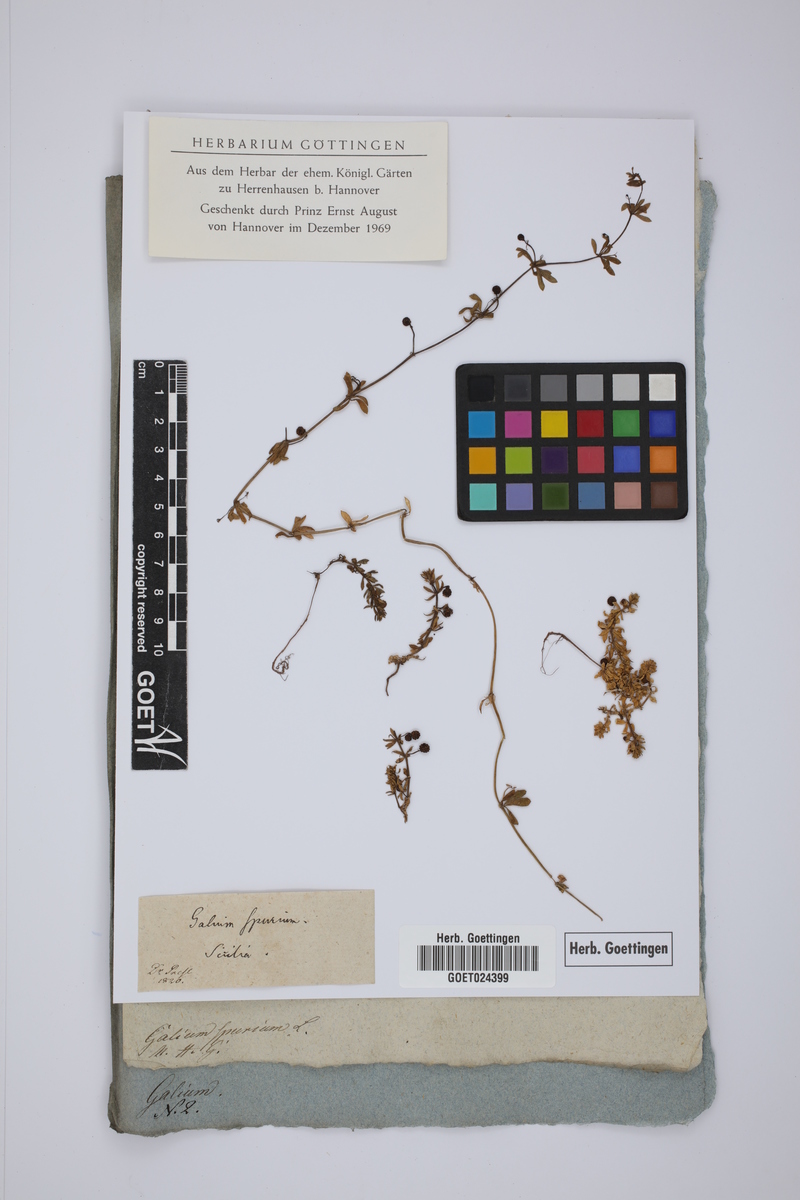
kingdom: Plantae
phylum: Tracheophyta
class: Magnoliopsida
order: Gentianales
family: Rubiaceae
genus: Galium
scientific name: Galium spurium
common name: False cleavers
